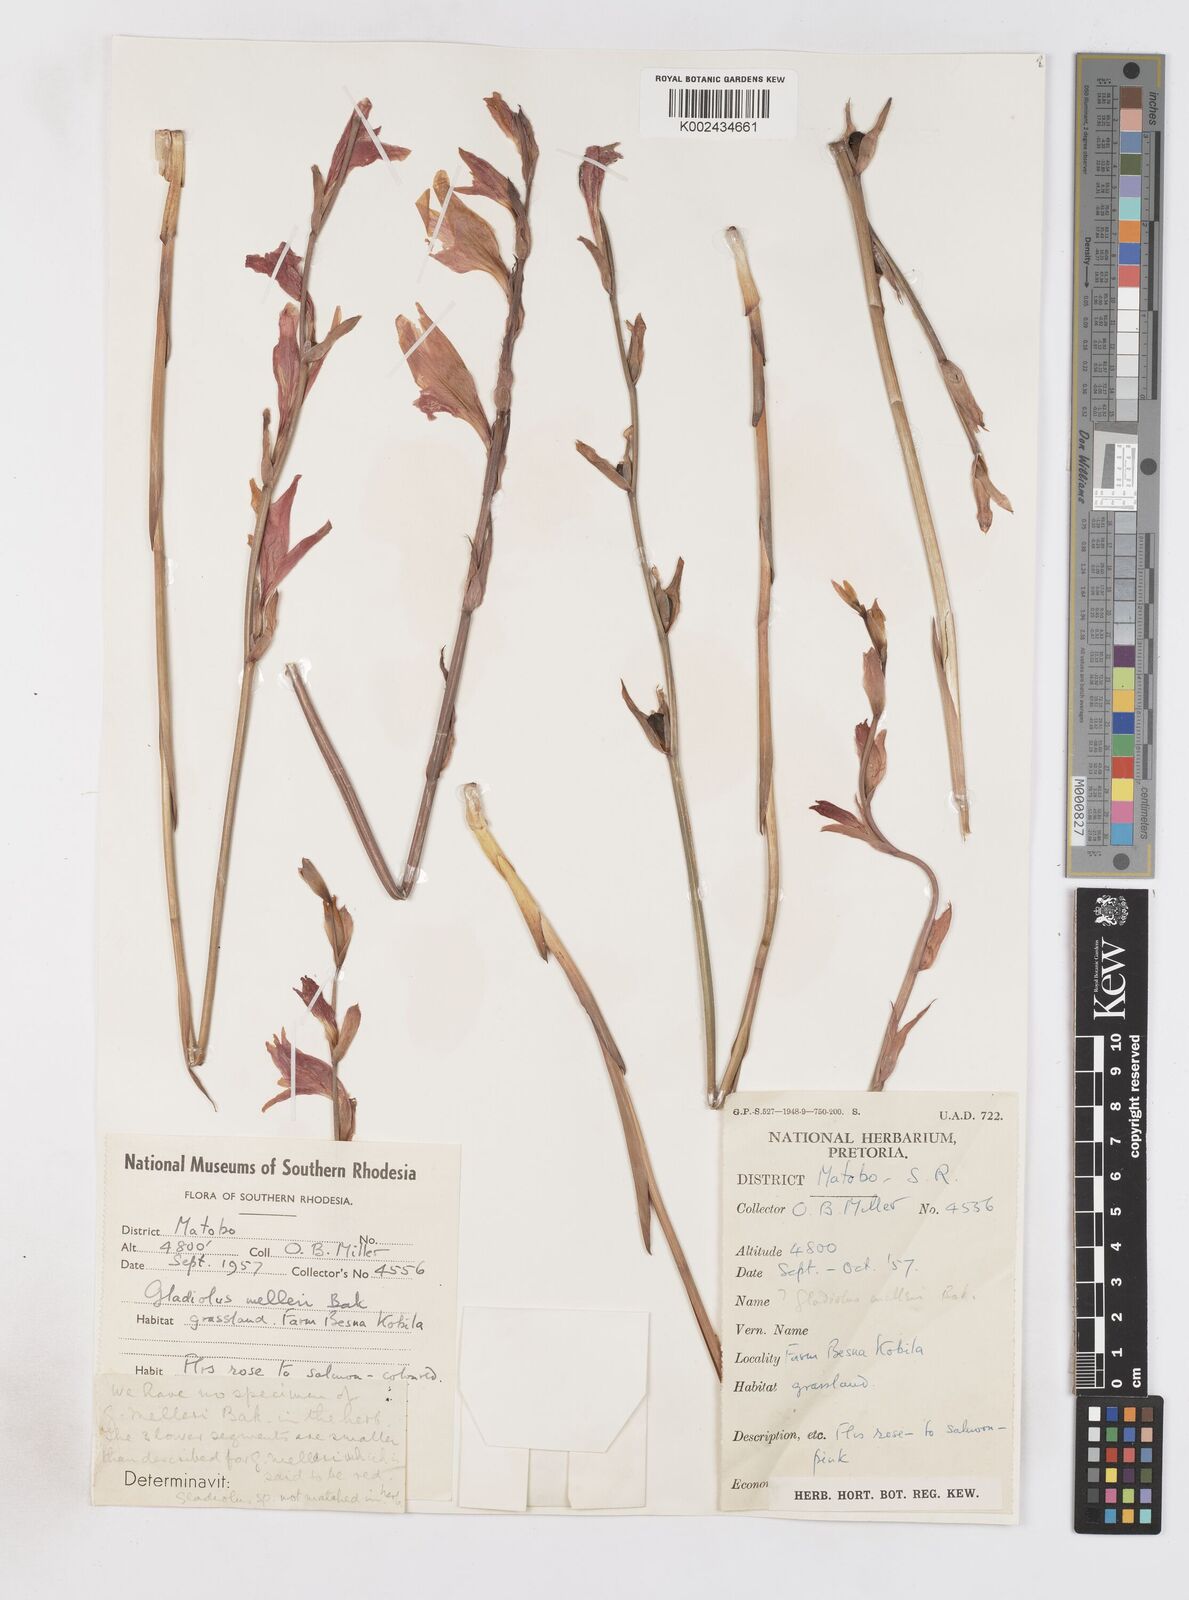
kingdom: Plantae
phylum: Tracheophyta
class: Liliopsida
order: Asparagales
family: Iridaceae
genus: Gladiolus
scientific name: Gladiolus melleri
